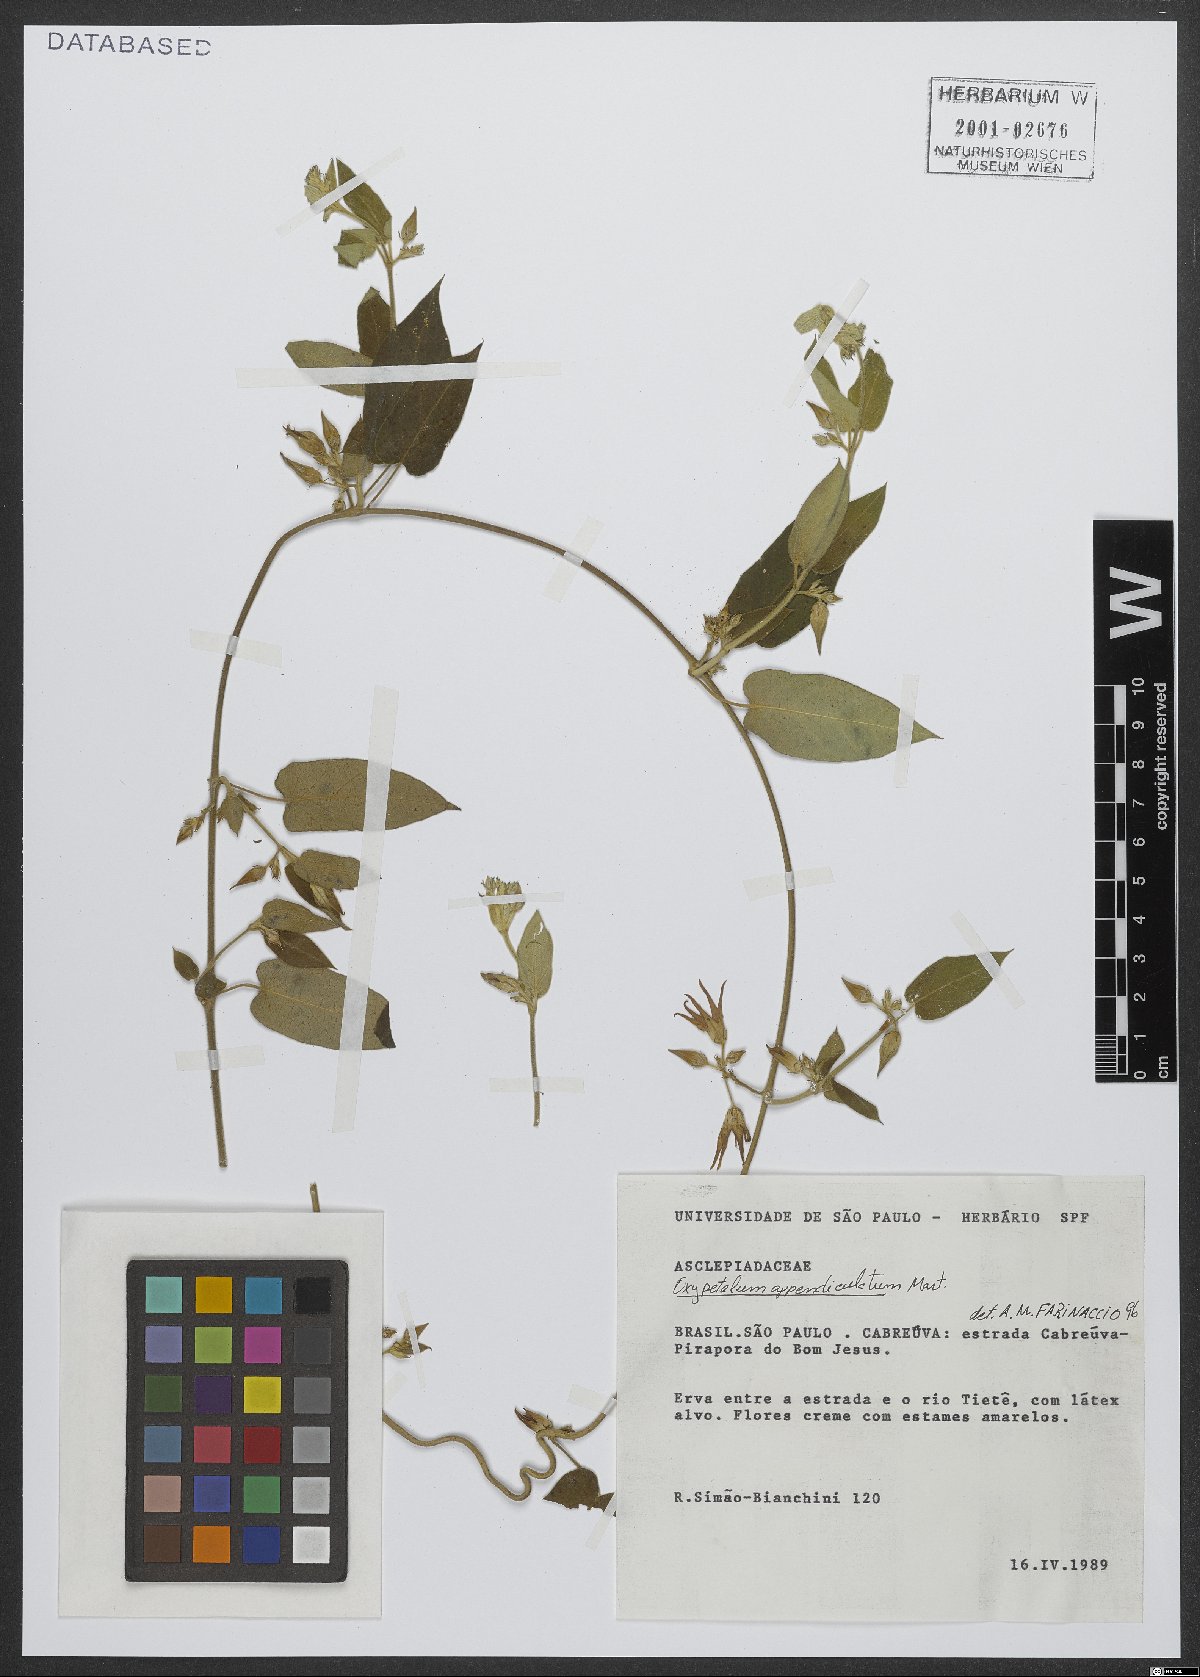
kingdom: Plantae
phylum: Tracheophyta
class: Magnoliopsida
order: Gentianales
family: Apocynaceae
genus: Oxypetalum
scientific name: Oxypetalum appendiculatum
